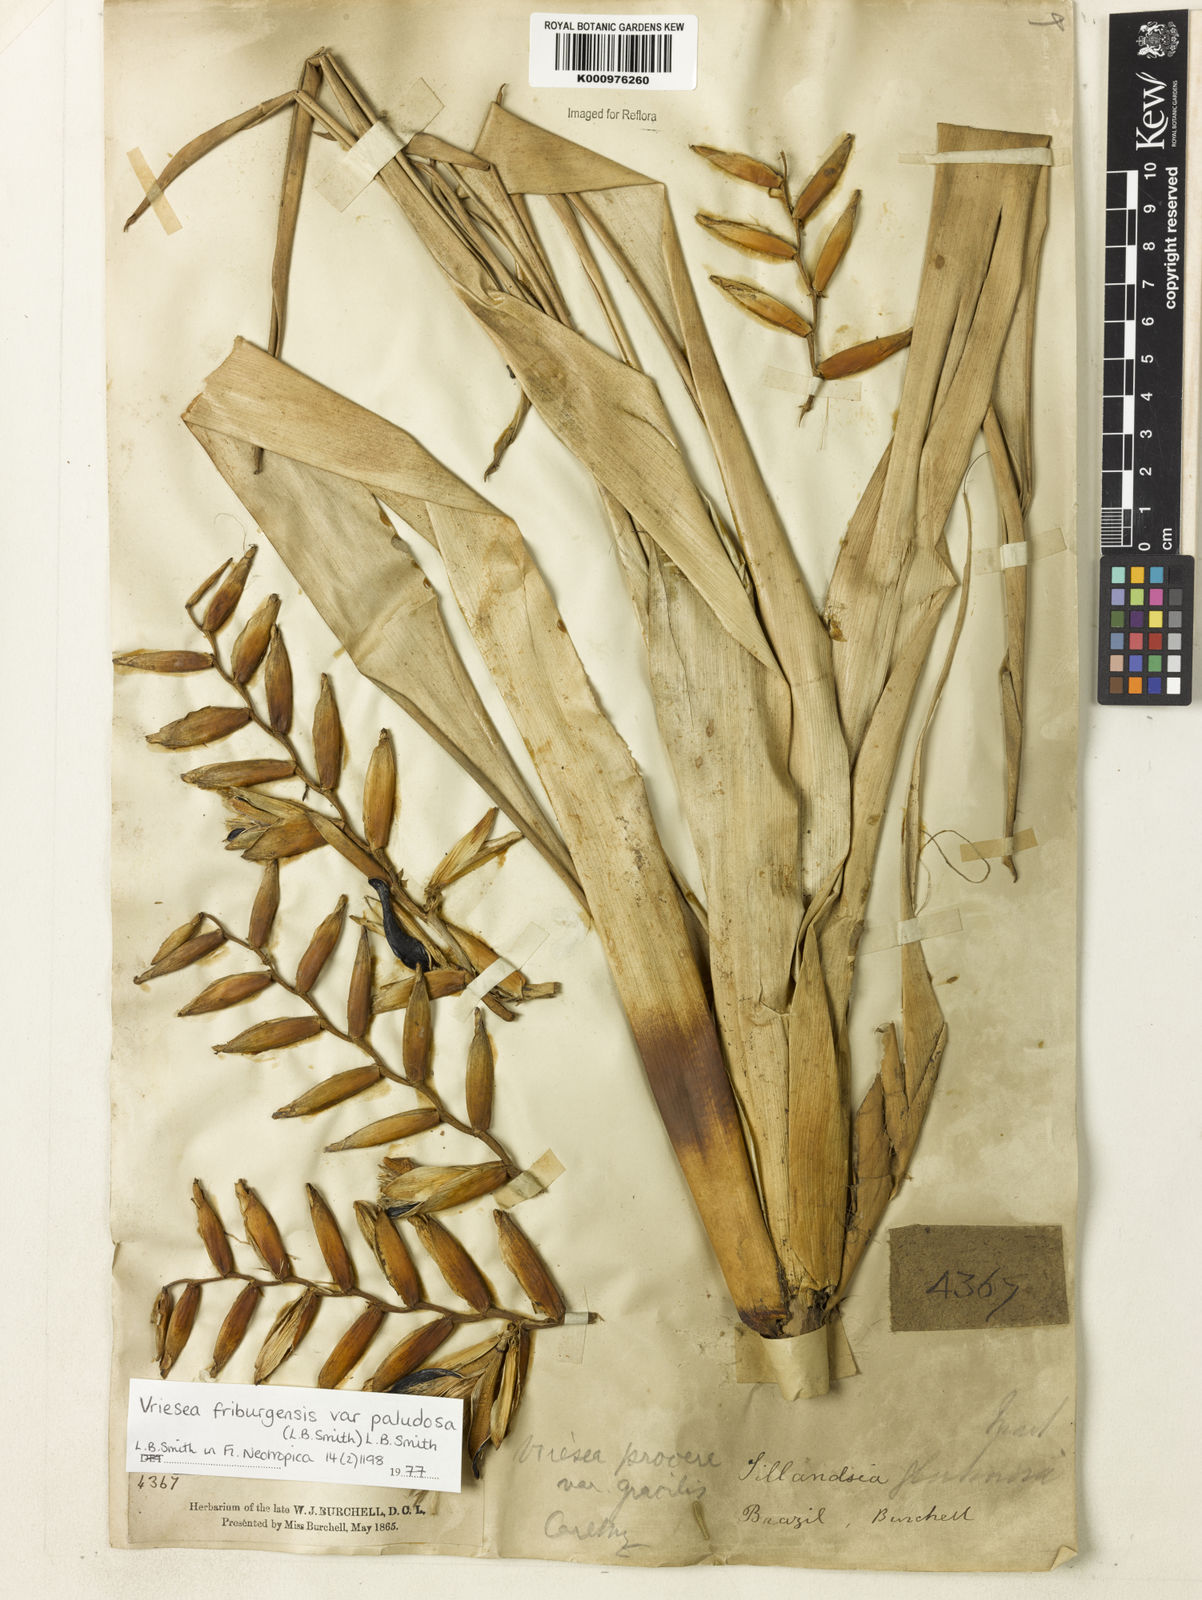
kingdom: Plantae
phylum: Tracheophyta
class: Liliopsida
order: Poales
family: Bromeliaceae
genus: Vriesea
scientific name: Vriesea friburgensis
